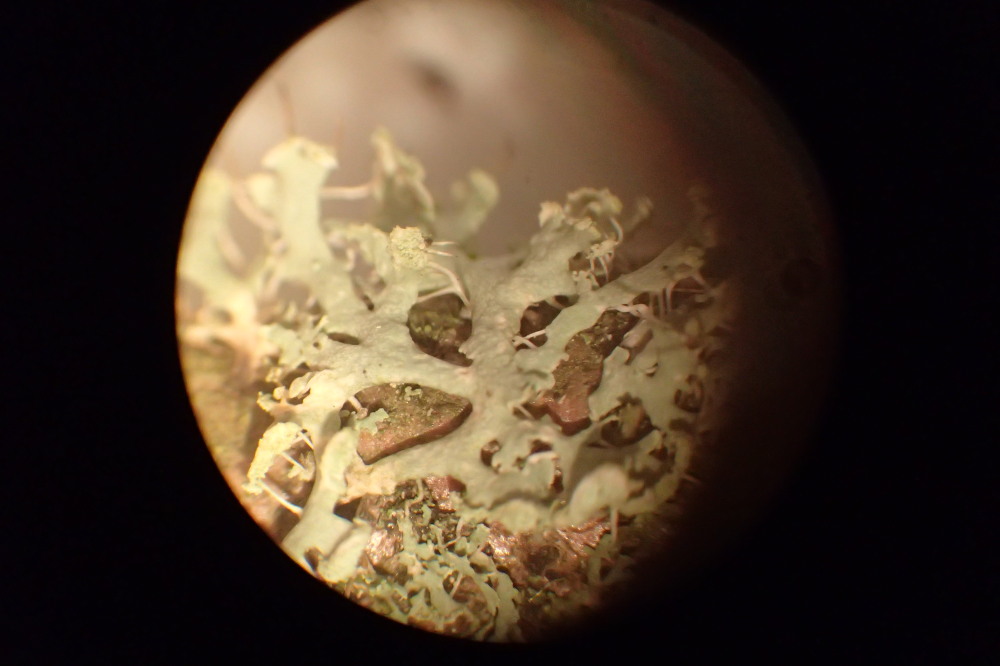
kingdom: Fungi
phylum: Ascomycota
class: Lecanoromycetes
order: Caliciales
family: Physciaceae
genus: Physcia
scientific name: Physcia tenella
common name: spæd rosetlav
